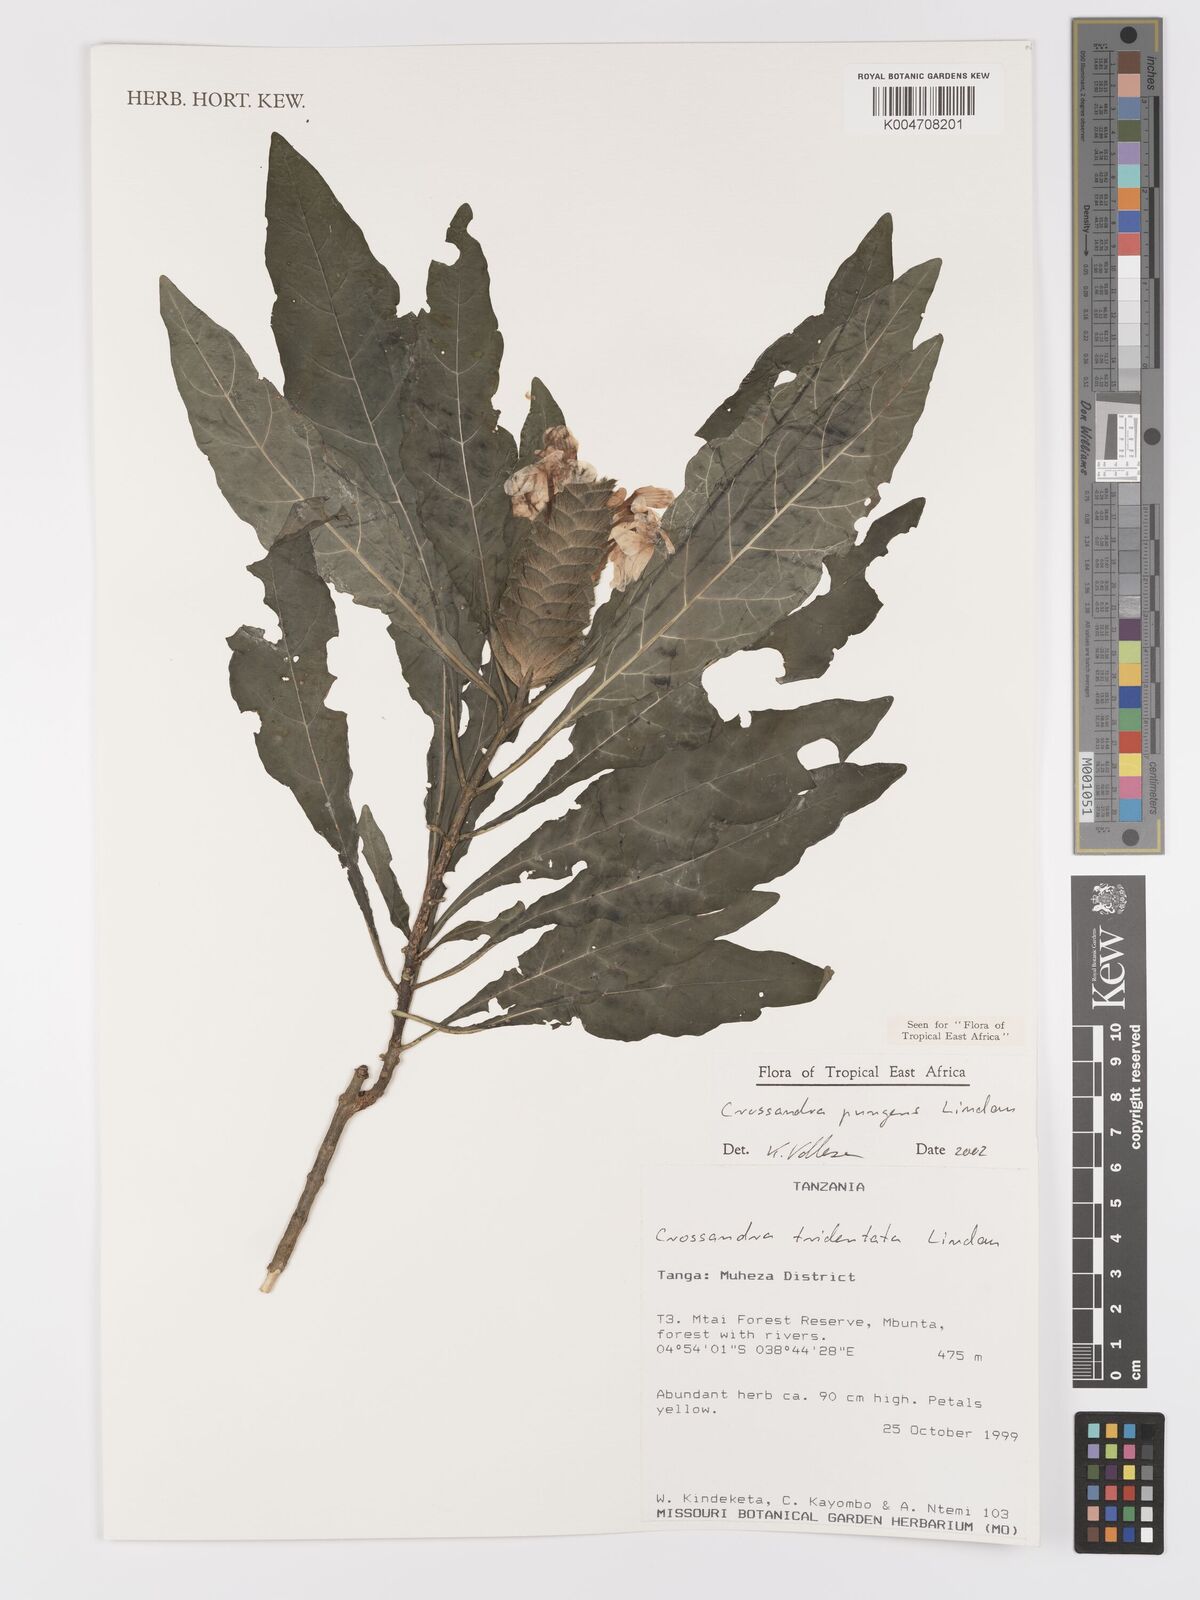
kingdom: Plantae
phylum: Tracheophyta
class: Magnoliopsida
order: Lamiales
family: Acanthaceae
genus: Crossandra
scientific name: Crossandra pungens
